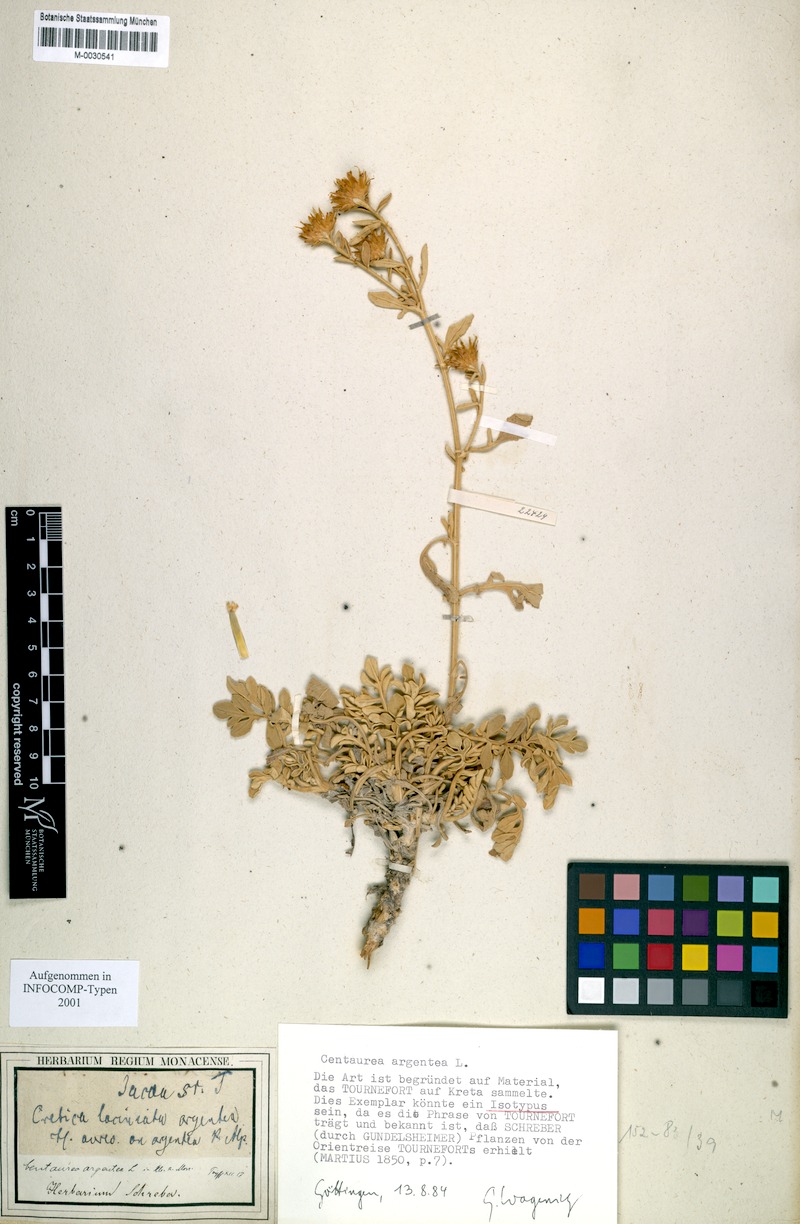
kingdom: Plantae
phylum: Tracheophyta
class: Magnoliopsida
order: Asterales
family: Asteraceae
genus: Centaurea
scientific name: Centaurea argentea
